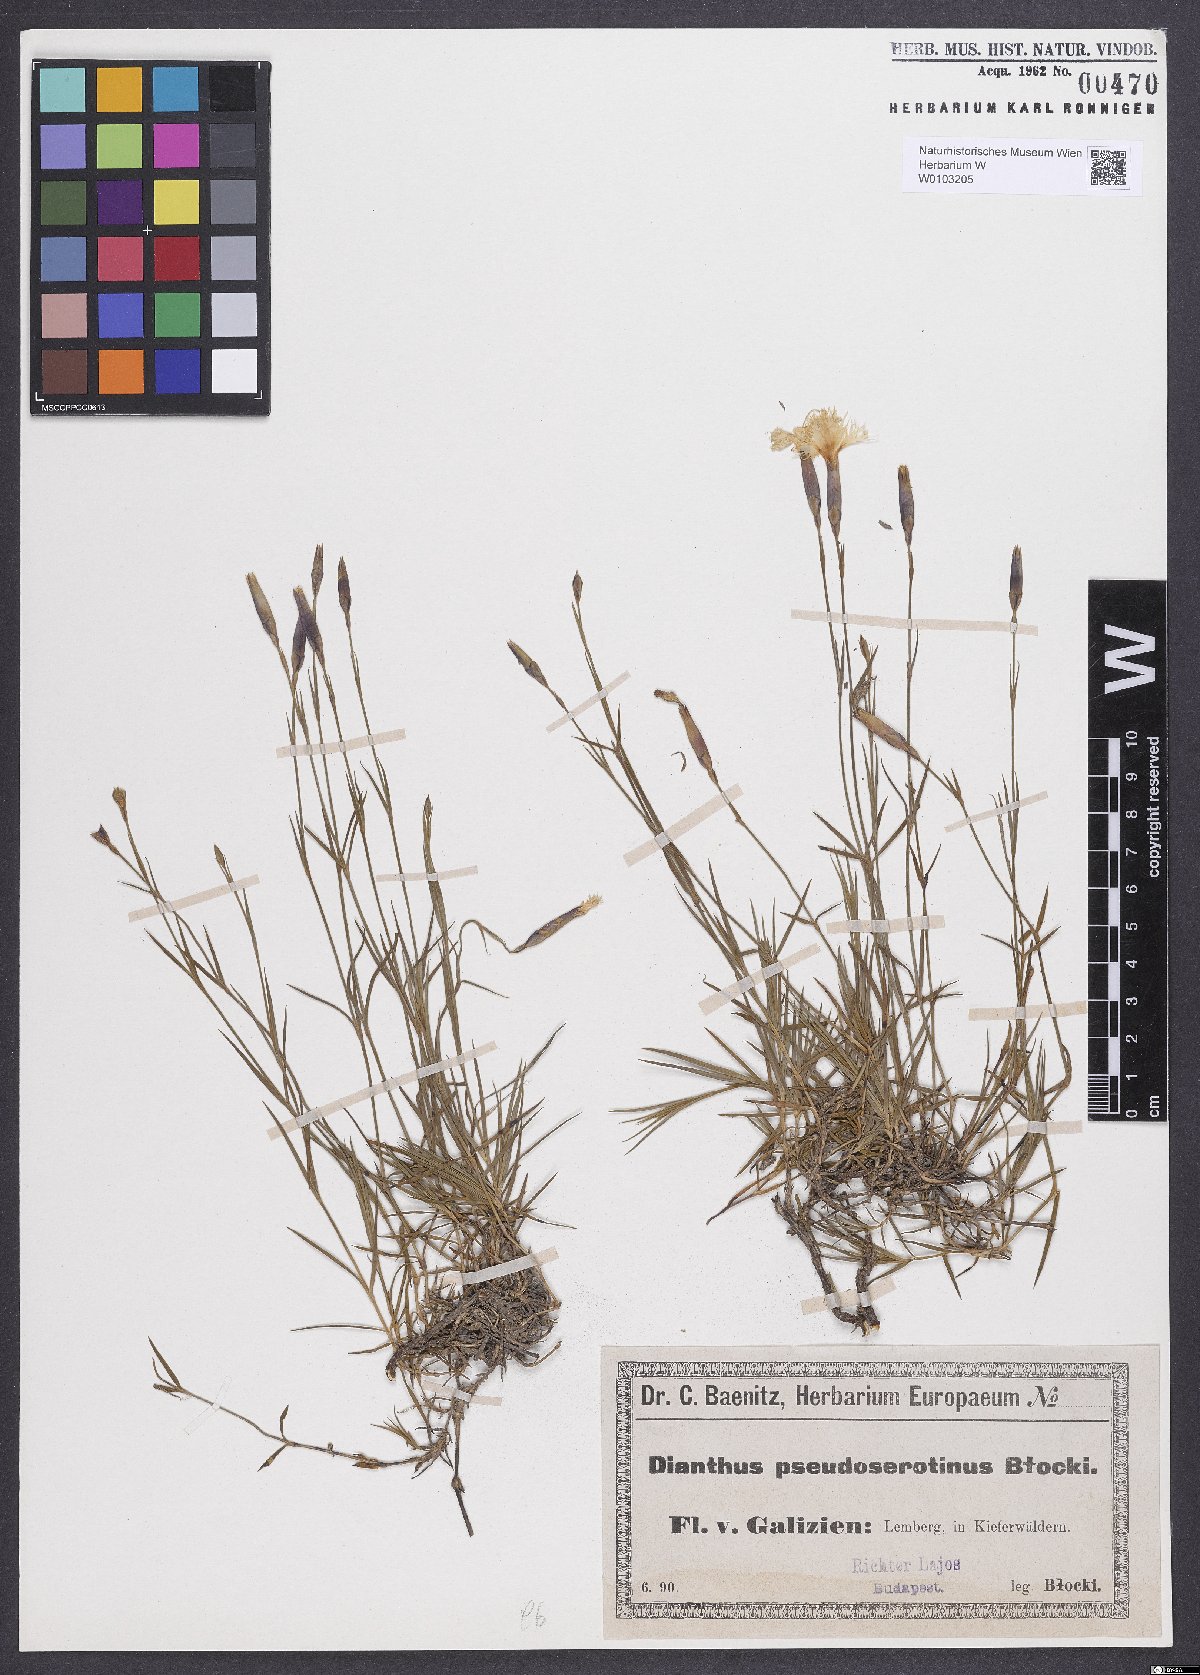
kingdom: Plantae
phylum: Tracheophyta
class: Magnoliopsida
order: Caryophyllales
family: Caryophyllaceae
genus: Dianthus
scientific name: Dianthus arenarius
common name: Stone pink
